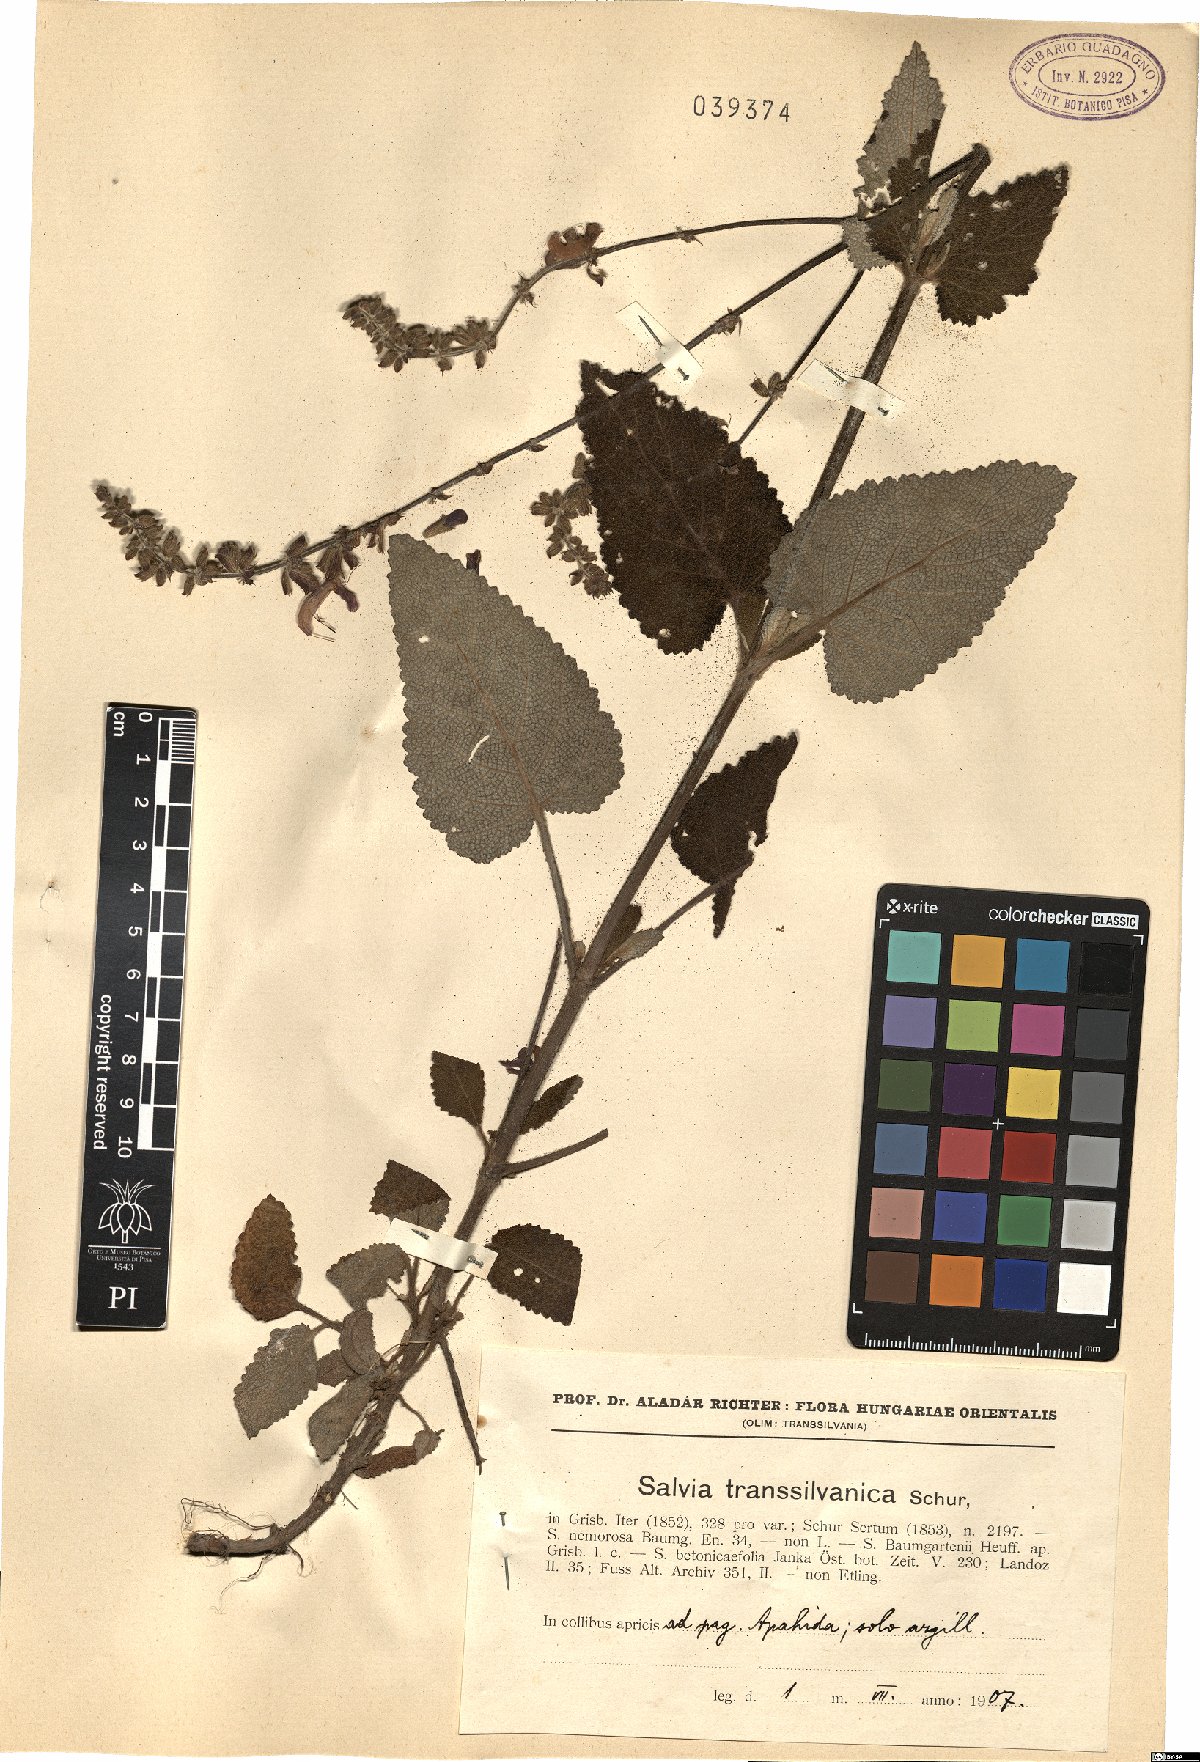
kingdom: Plantae
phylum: Tracheophyta
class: Magnoliopsida
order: Lamiales
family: Lamiaceae
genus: Salvia
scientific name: Salvia transsylvanica
